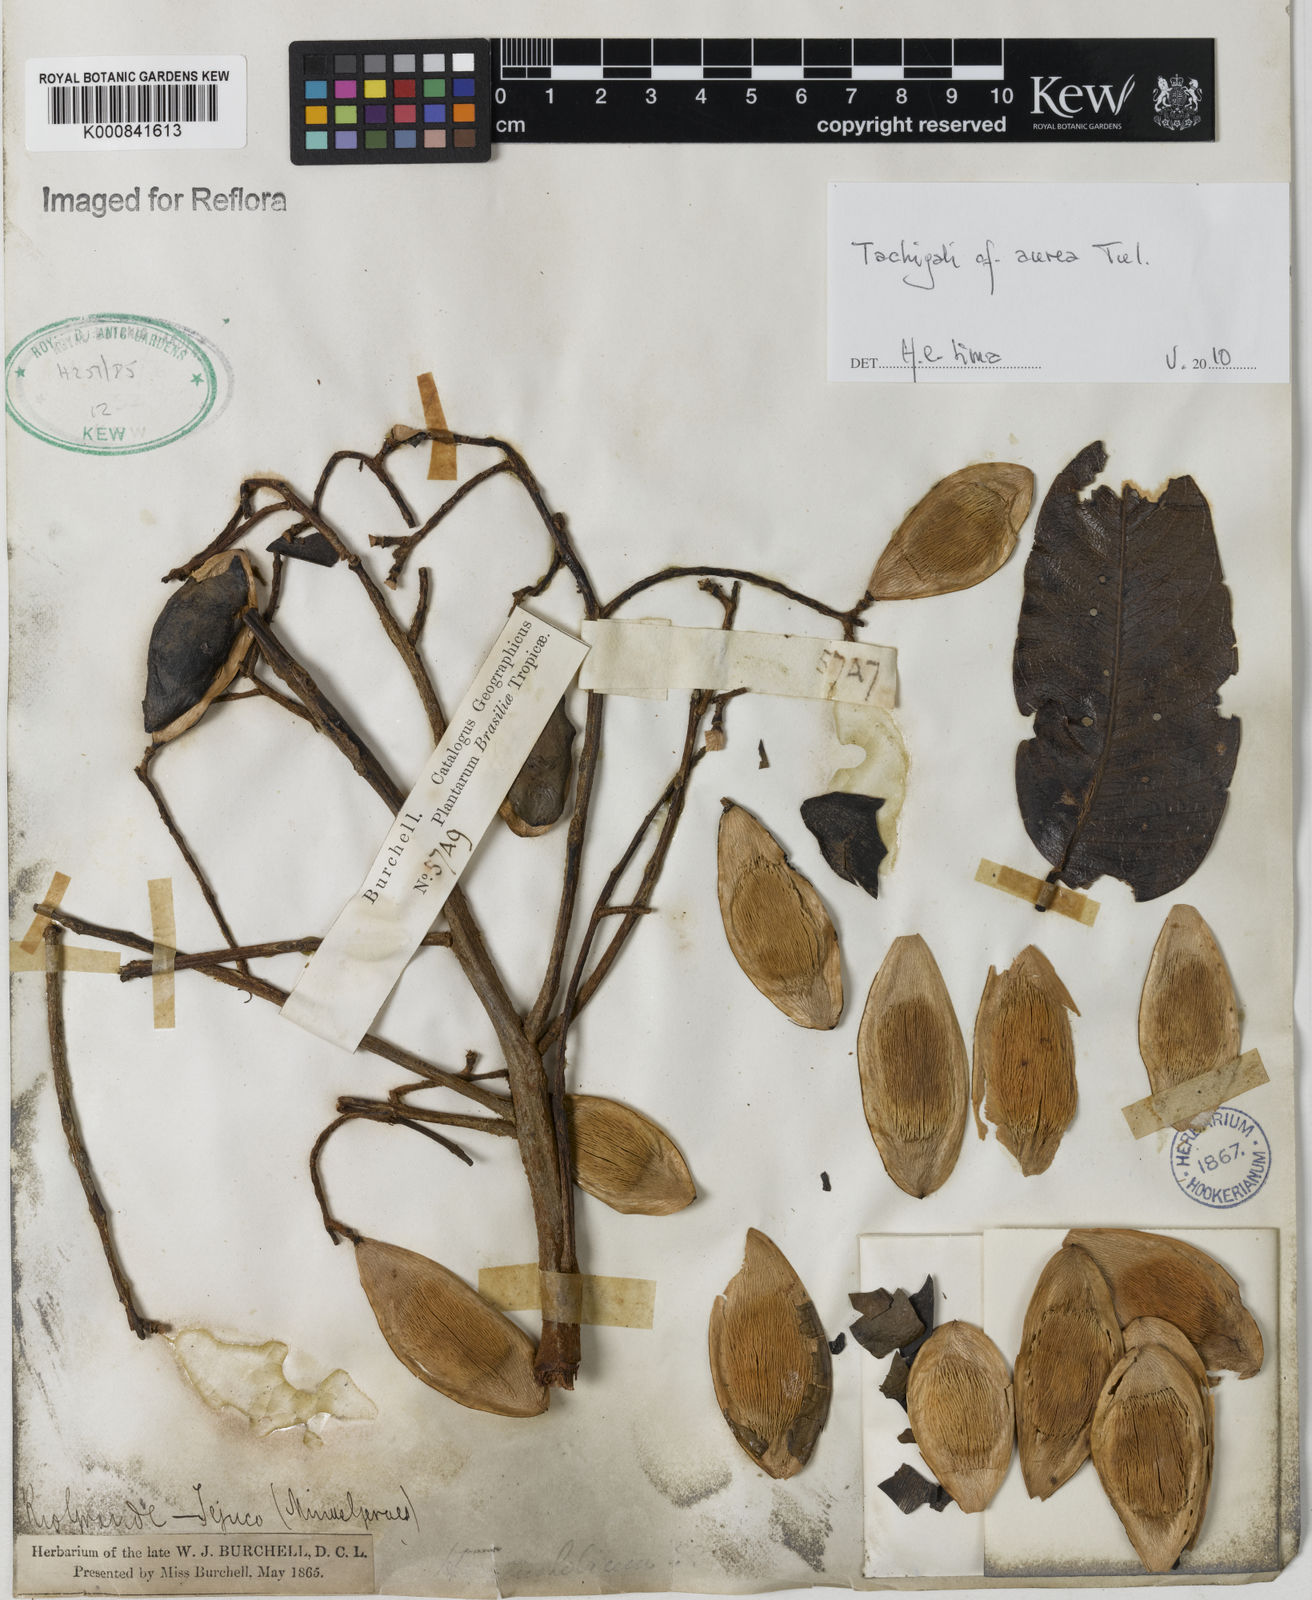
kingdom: Plantae
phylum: Tracheophyta
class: Magnoliopsida
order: Fabales
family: Fabaceae
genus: Tachigali
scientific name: Tachigali aurea
